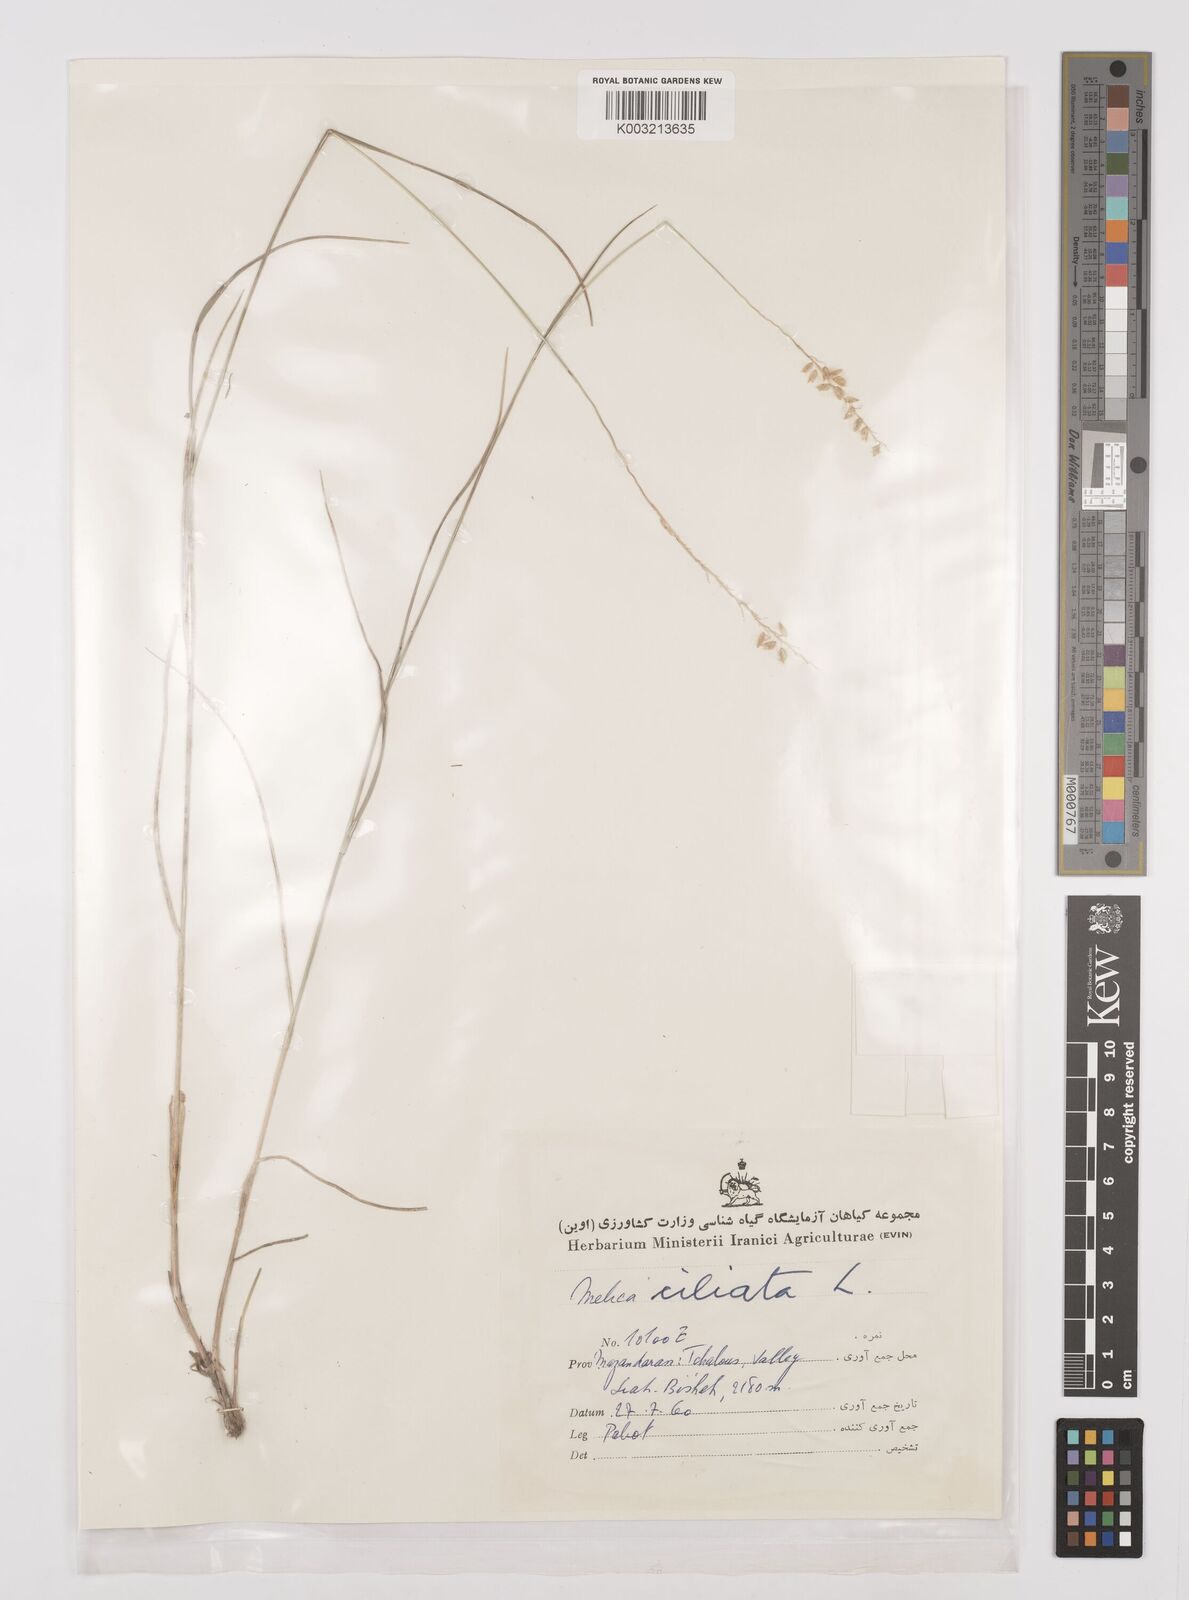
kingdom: Plantae
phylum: Tracheophyta
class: Liliopsida
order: Poales
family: Poaceae
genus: Melica
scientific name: Melica ciliata
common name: Hairy melicgrass
